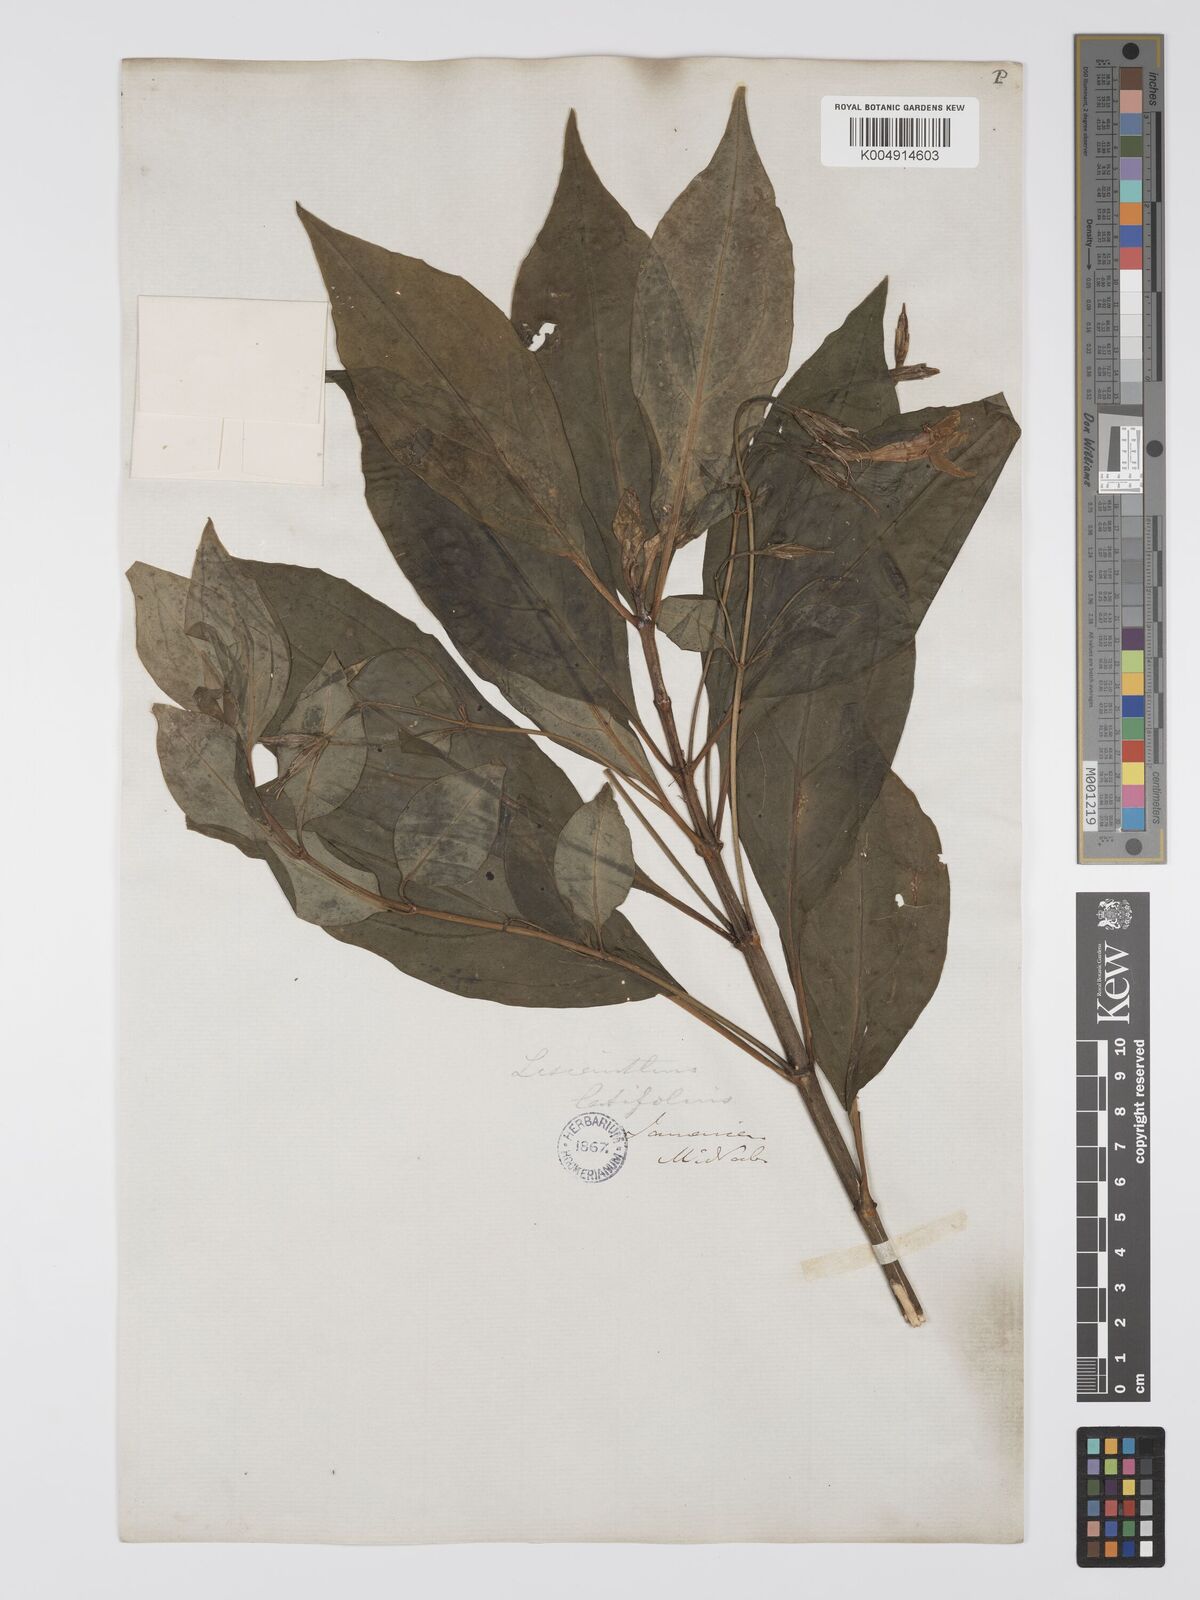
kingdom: Plantae
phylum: Tracheophyta
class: Magnoliopsida
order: Gentianales
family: Gentianaceae
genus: Lisianthus
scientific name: Lisianthus latifolius
